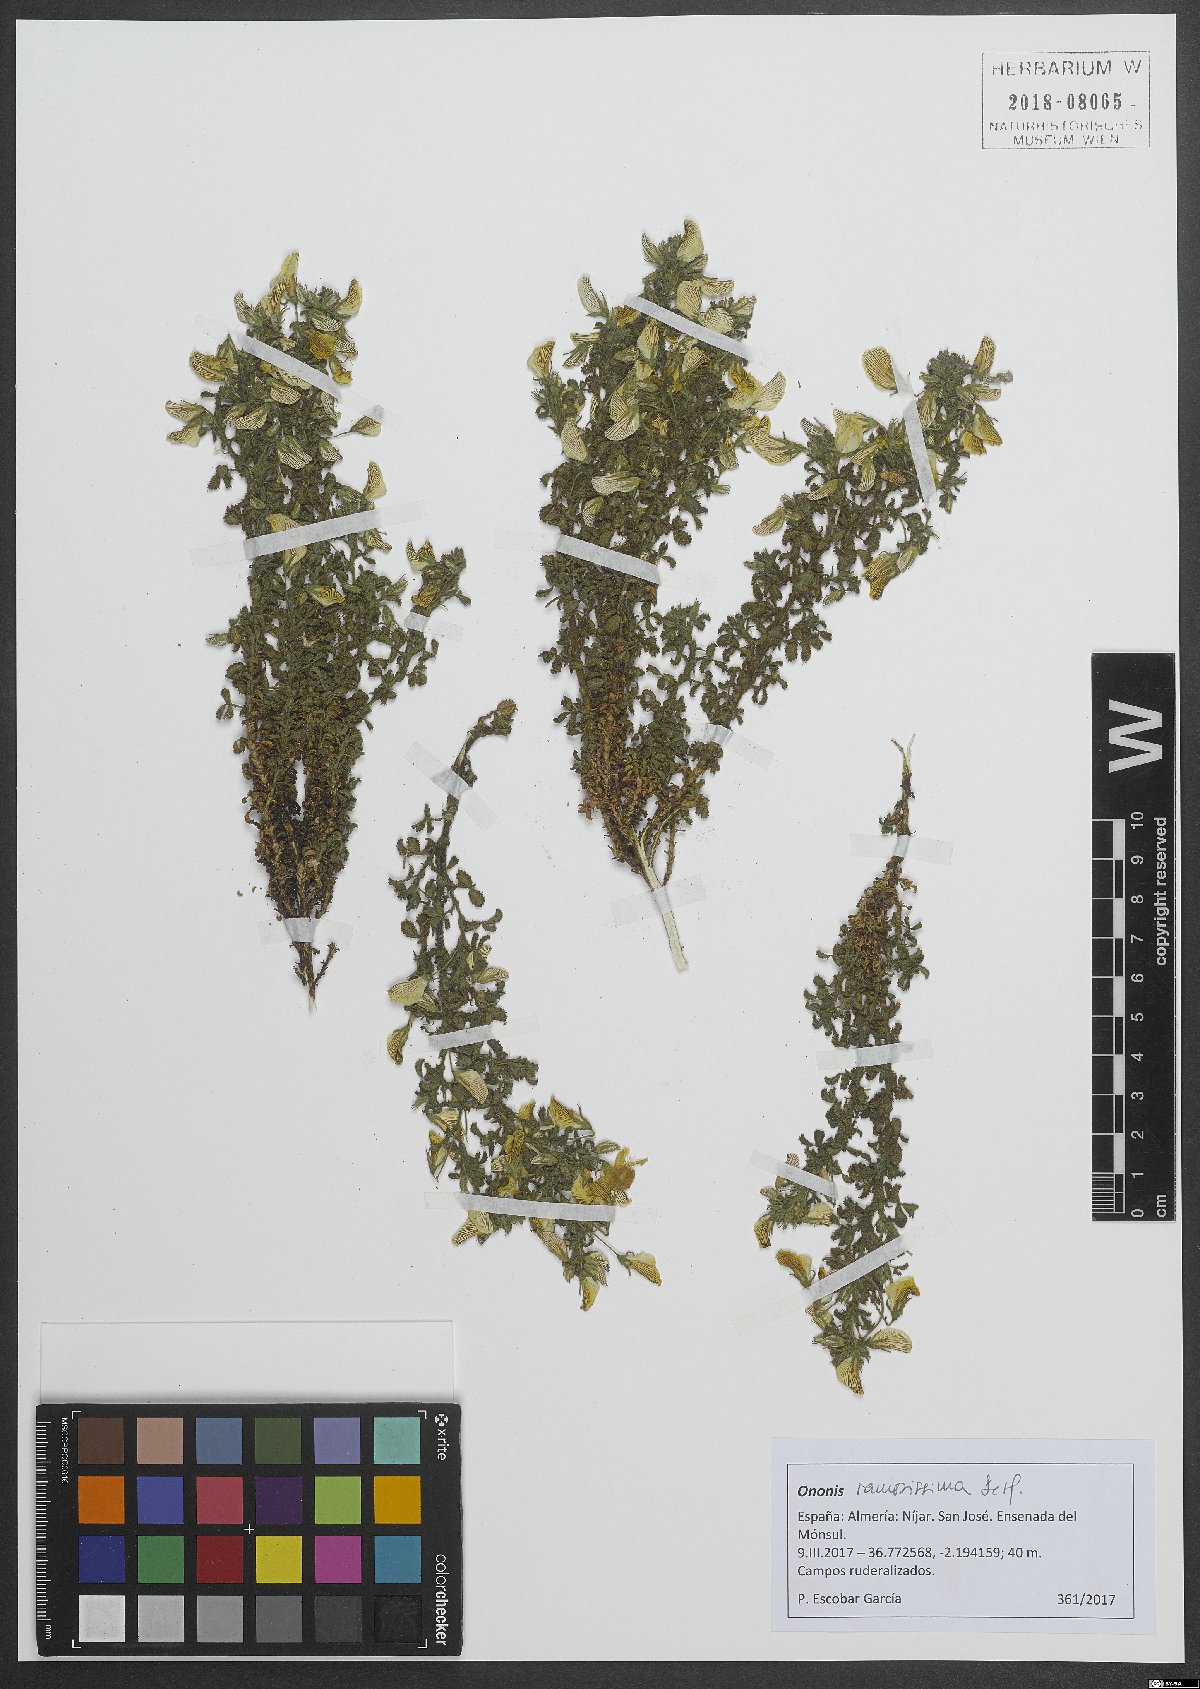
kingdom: Plantae
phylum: Tracheophyta
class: Magnoliopsida
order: Fabales
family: Fabaceae
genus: Ononis
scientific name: Ononis ramosissima
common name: Bush restharrow
